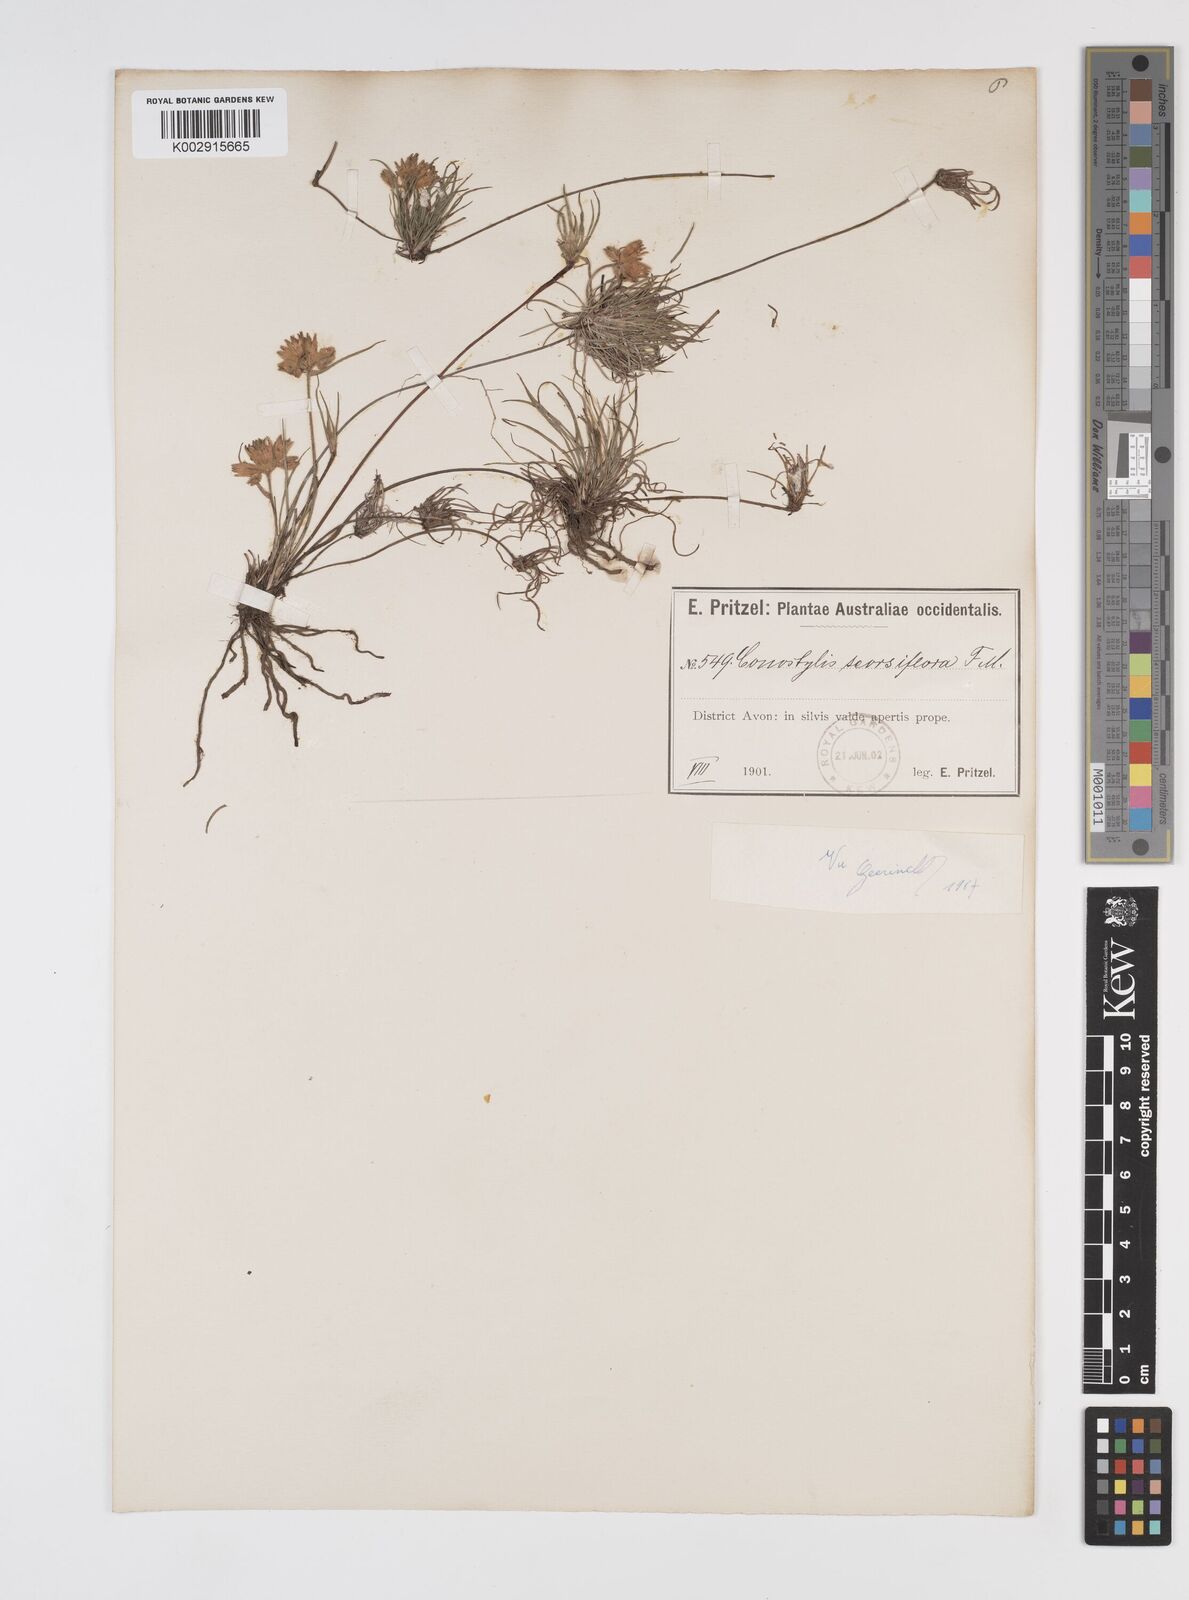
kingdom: Plantae
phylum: Tracheophyta
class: Liliopsida
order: Commelinales
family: Haemodoraceae
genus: Conostylis
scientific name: Conostylis seorsiflora
